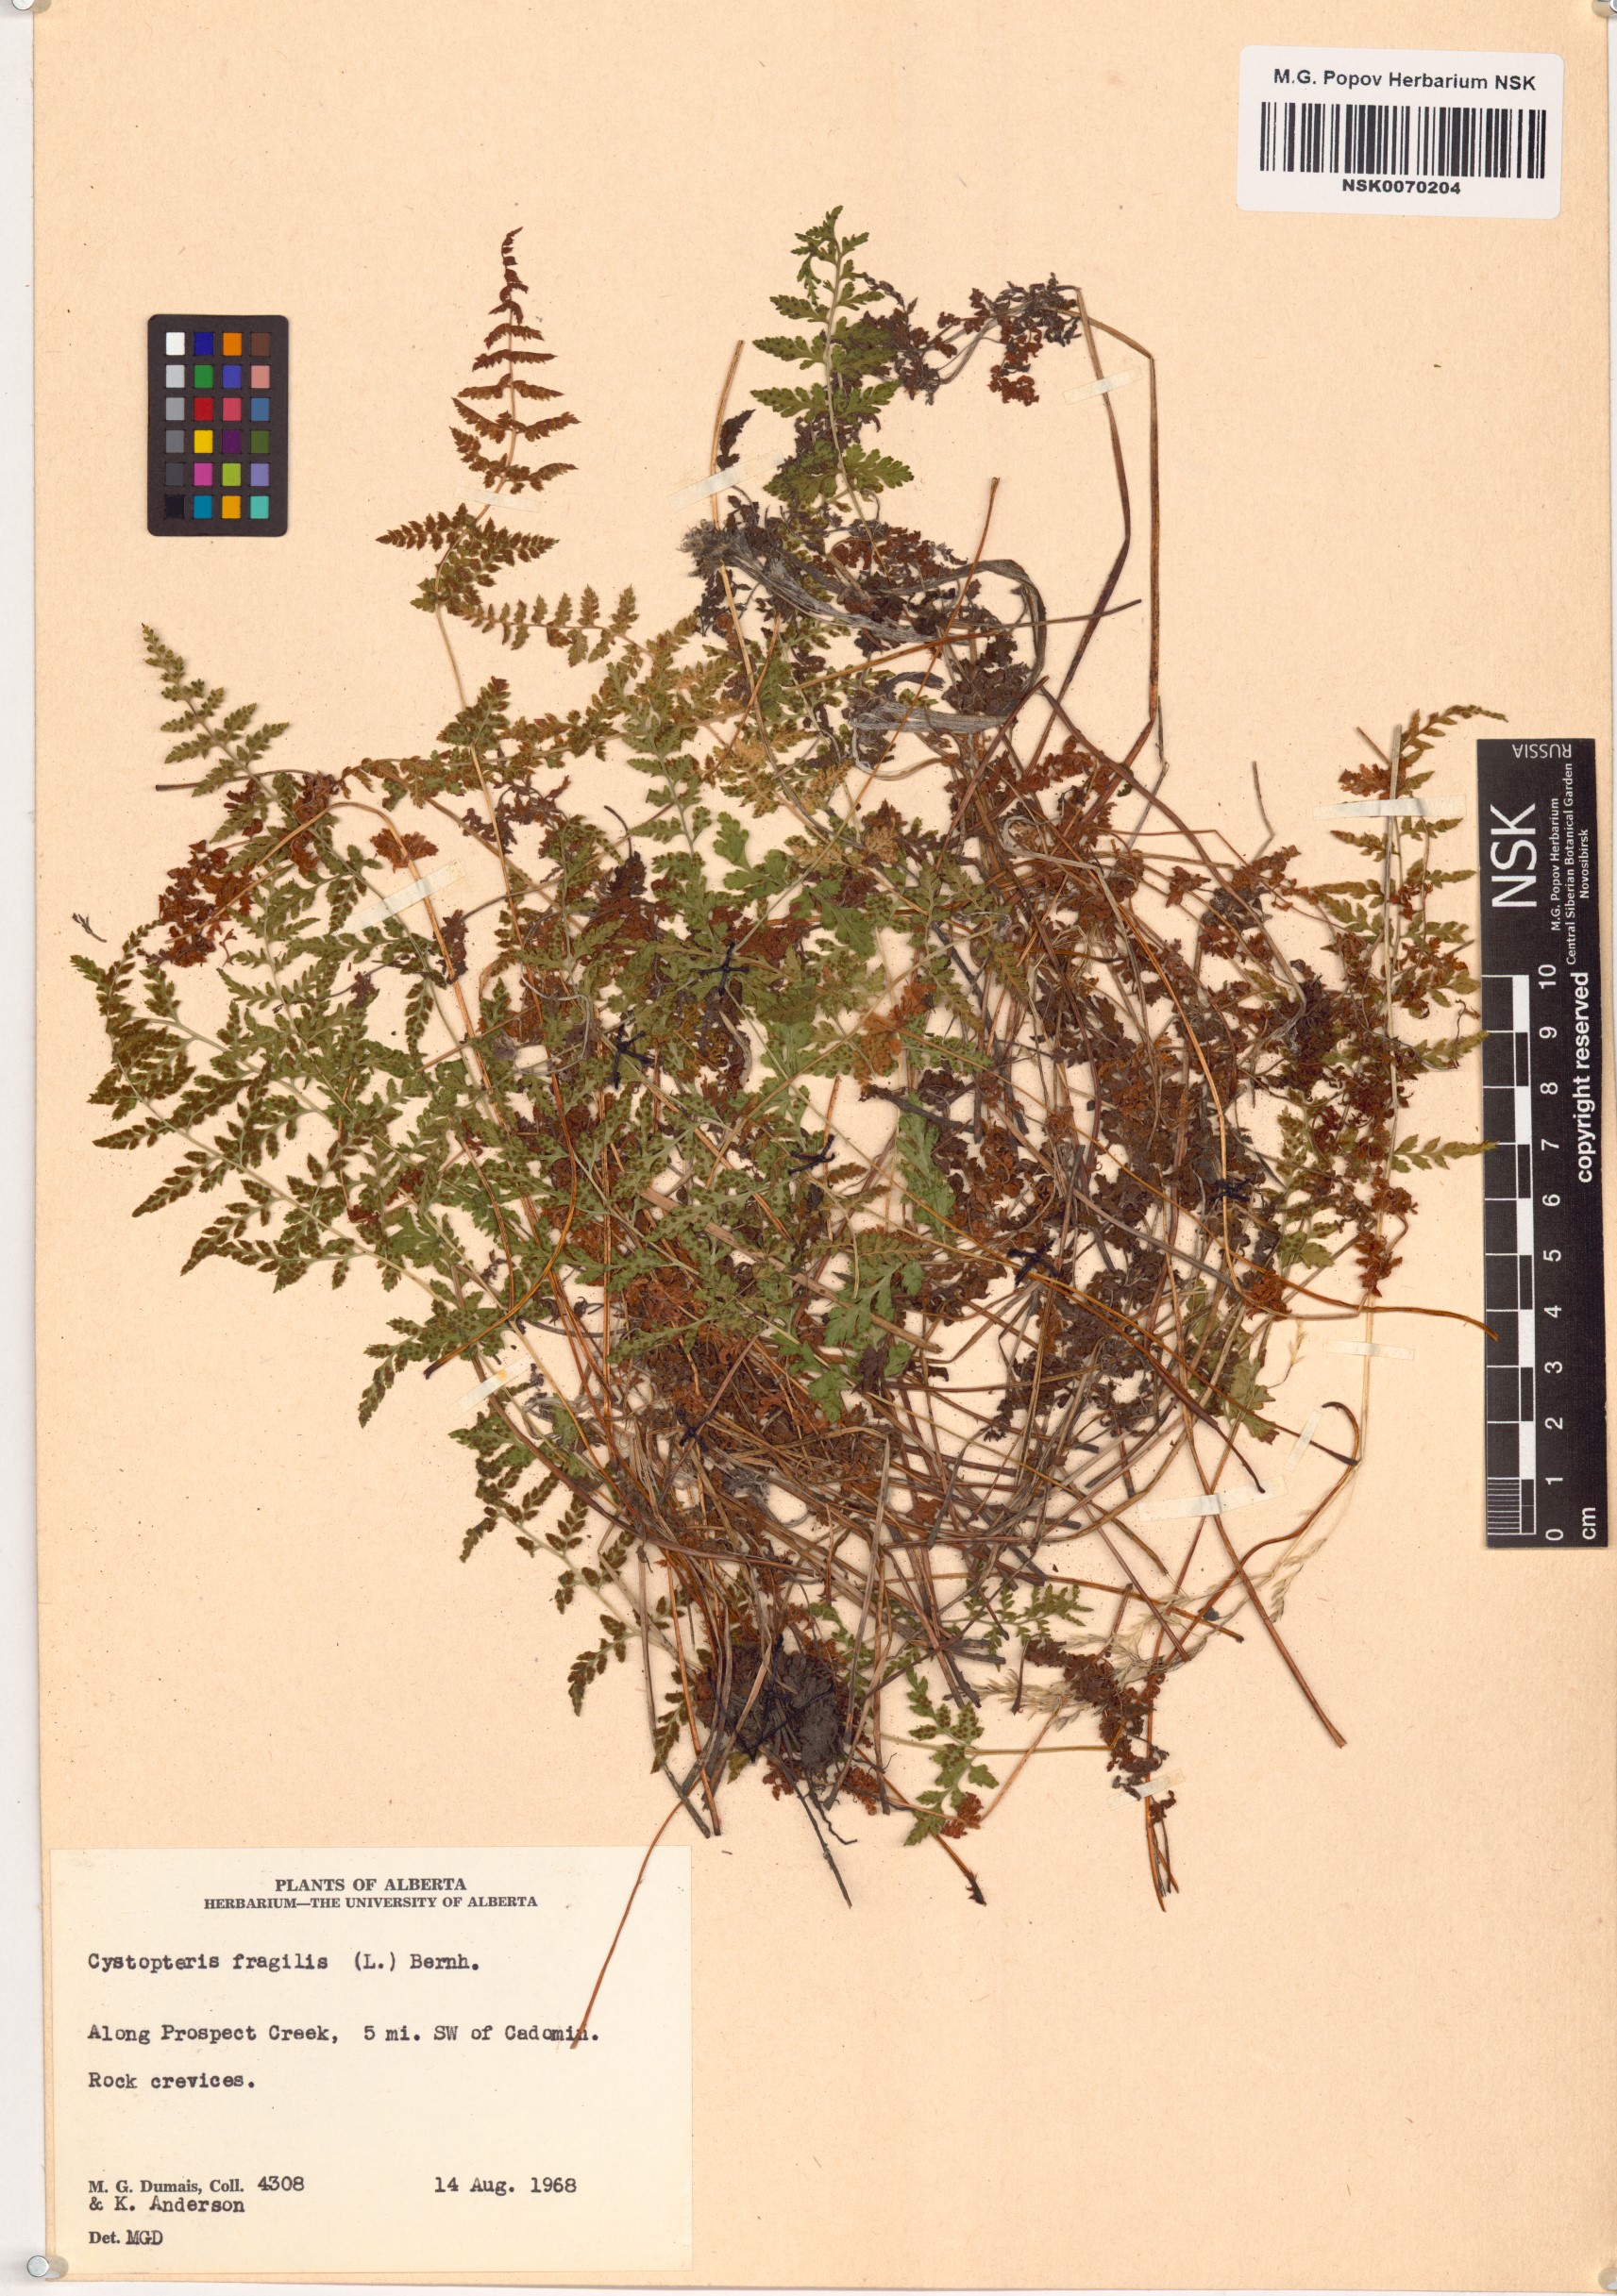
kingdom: Plantae
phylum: Tracheophyta
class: Polypodiopsida
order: Polypodiales
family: Cystopteridaceae
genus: Cystopteris
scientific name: Cystopteris fragilis
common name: Brittle bladder fern
